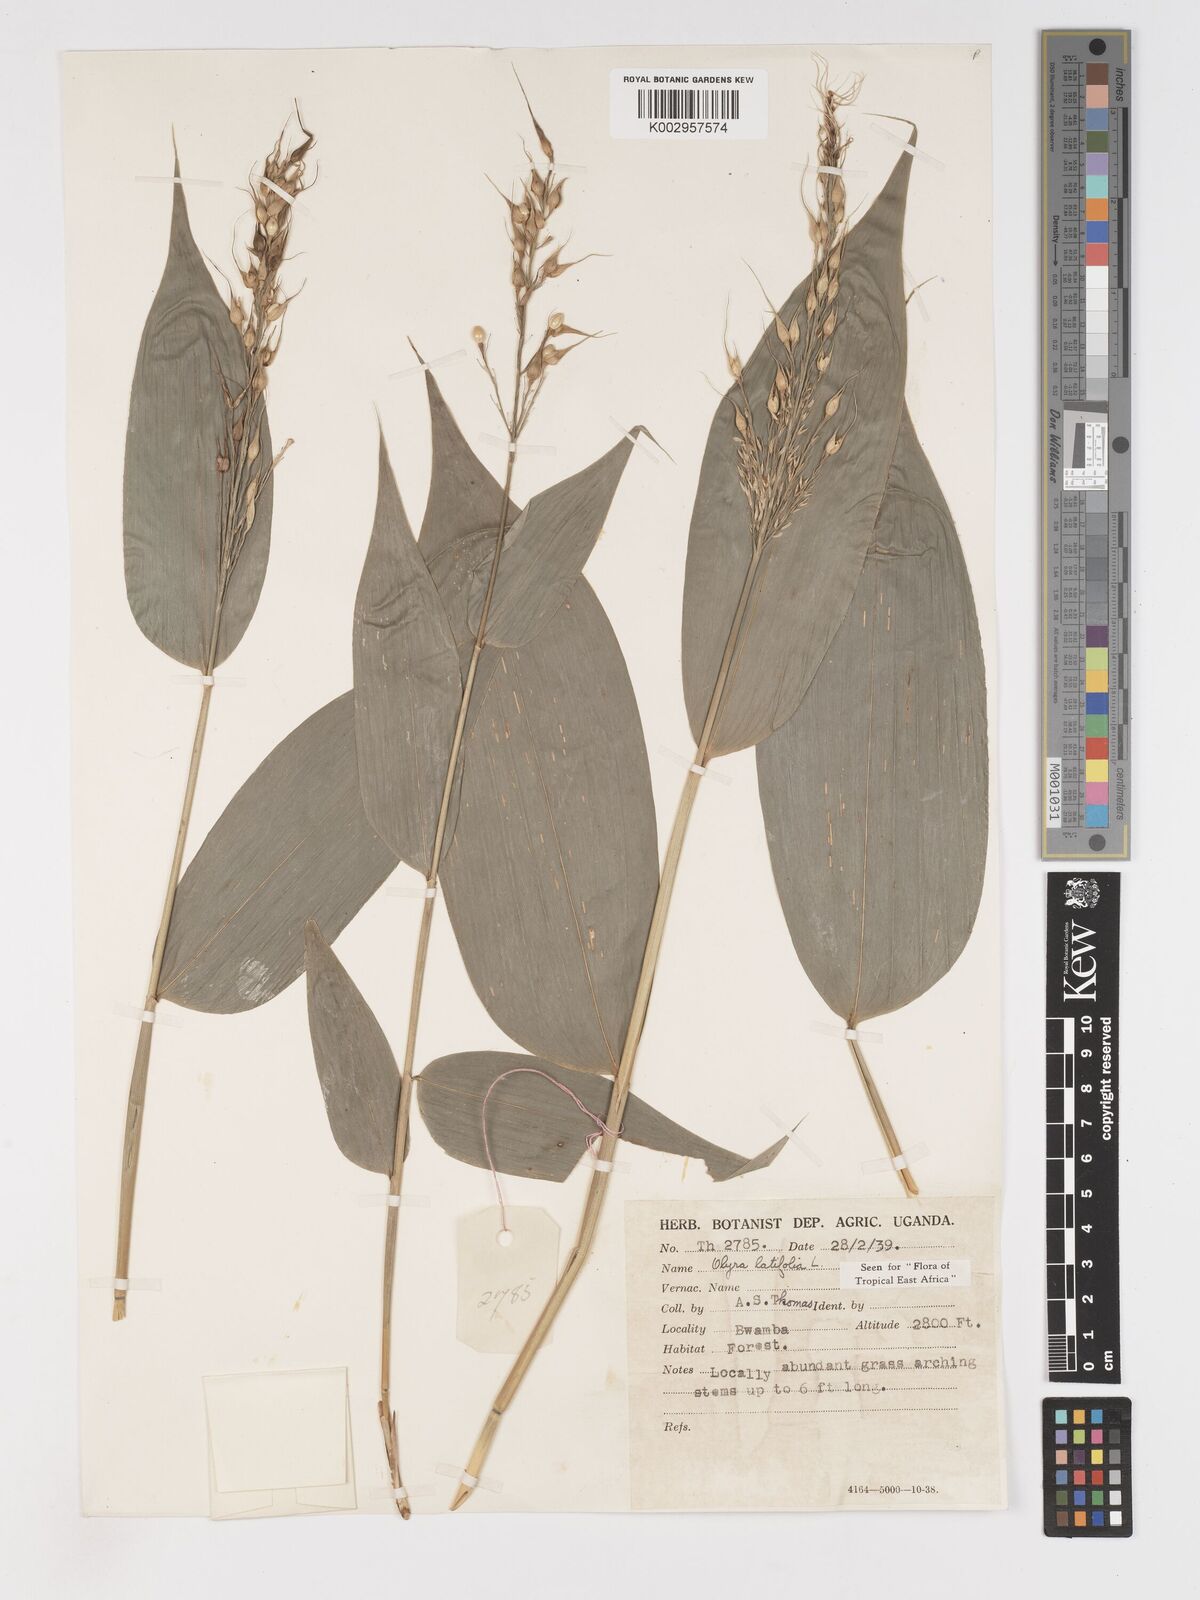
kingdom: Plantae
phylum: Tracheophyta
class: Liliopsida
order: Poales
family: Poaceae
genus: Olyra
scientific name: Olyra latifolia
